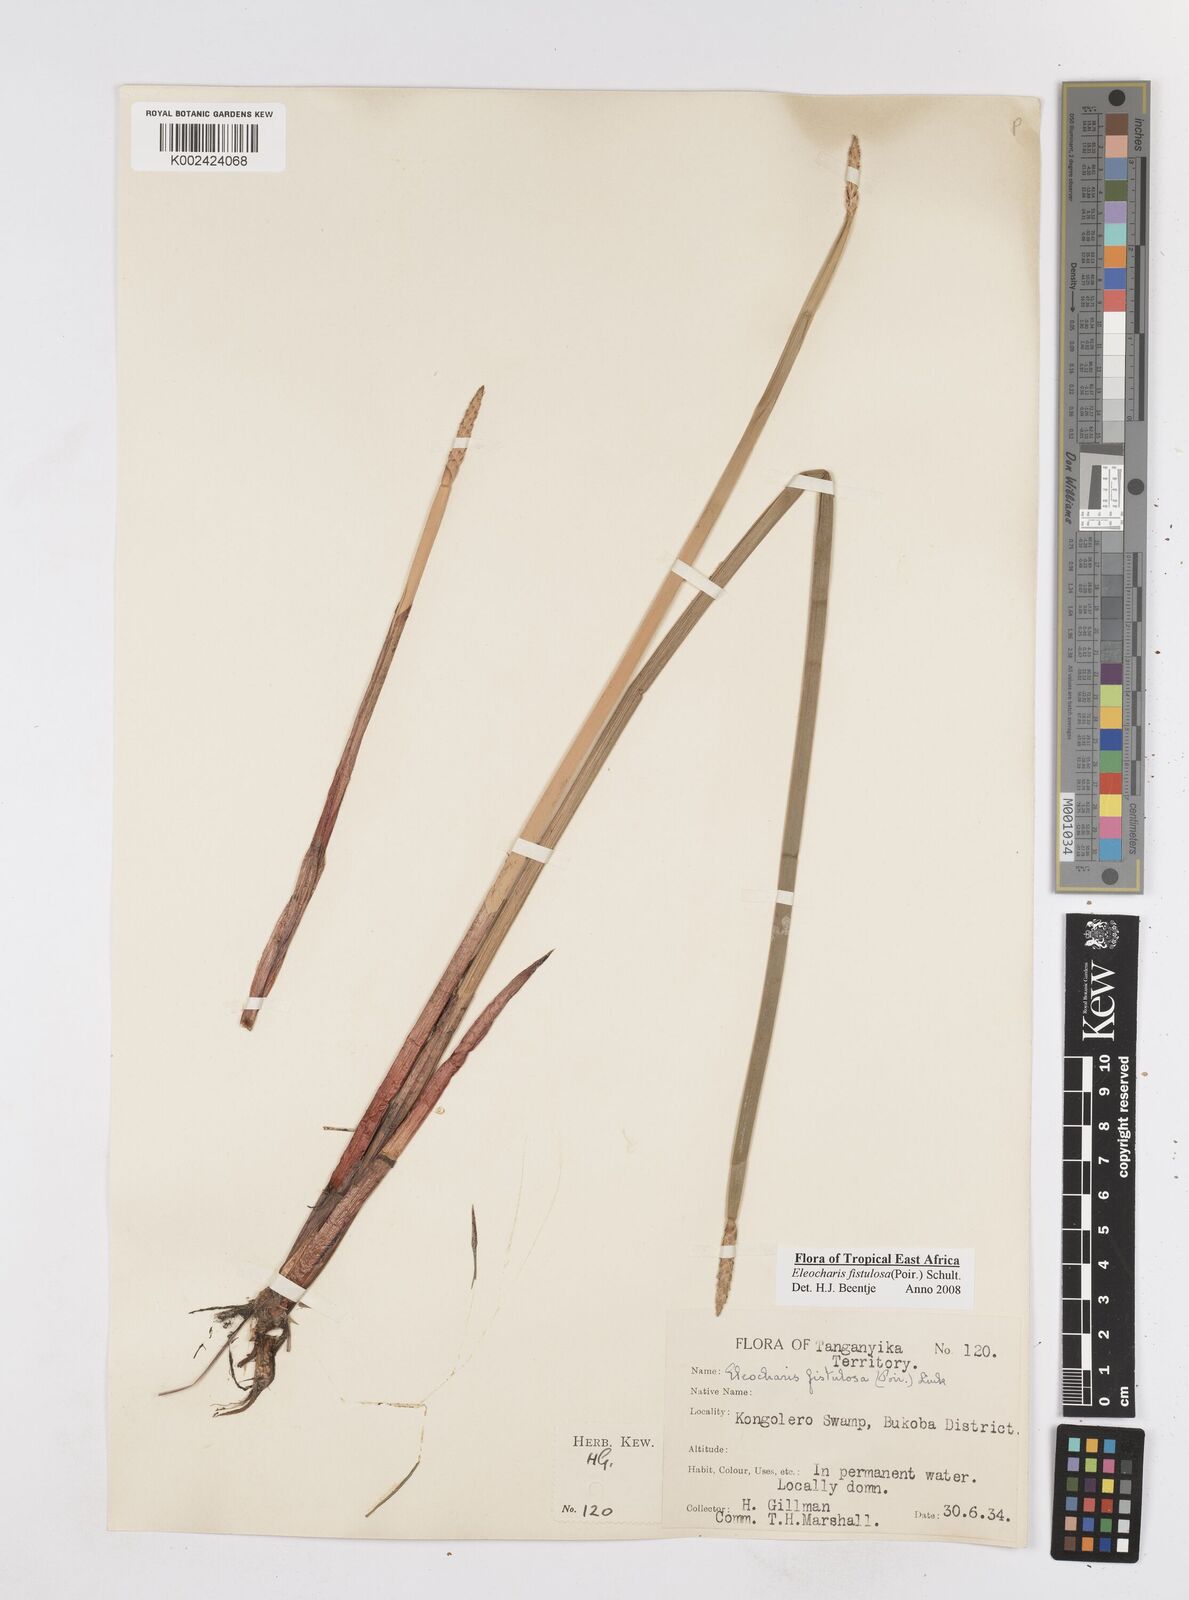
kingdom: Plantae
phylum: Tracheophyta
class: Liliopsida
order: Poales
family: Cyperaceae
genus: Eleocharis
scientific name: Eleocharis acutangula
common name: Acute spikerush
